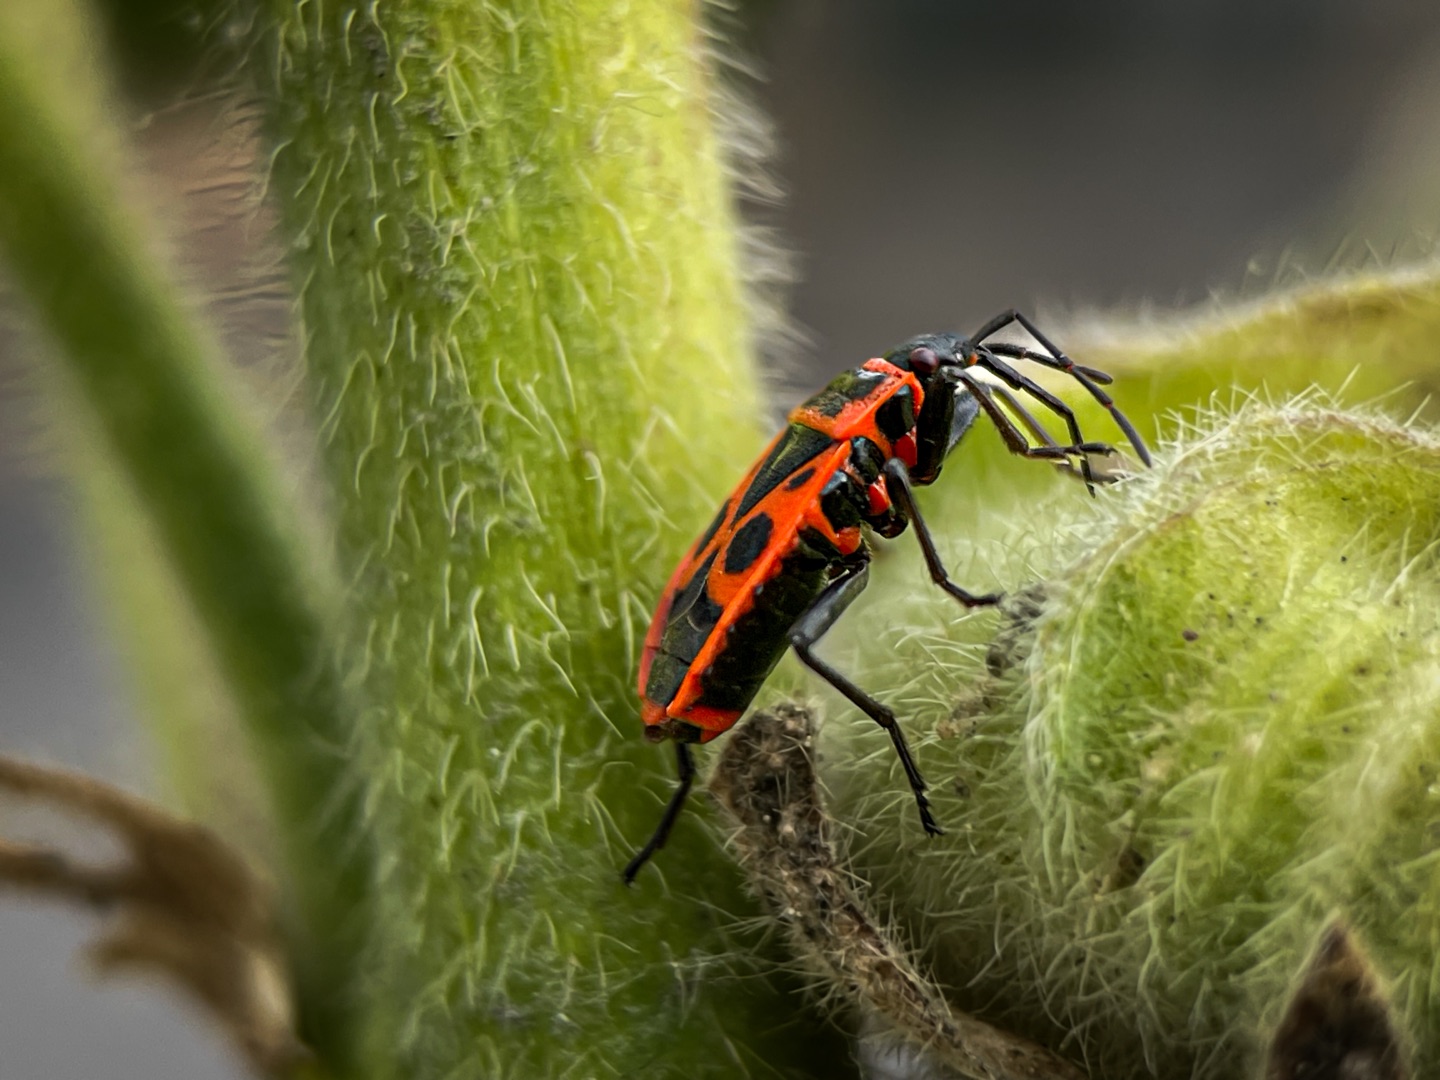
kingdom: Animalia
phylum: Arthropoda
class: Insecta
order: Hemiptera
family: Pyrrhocoridae
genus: Pyrrhocoris
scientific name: Pyrrhocoris apterus
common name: Ildtæge
